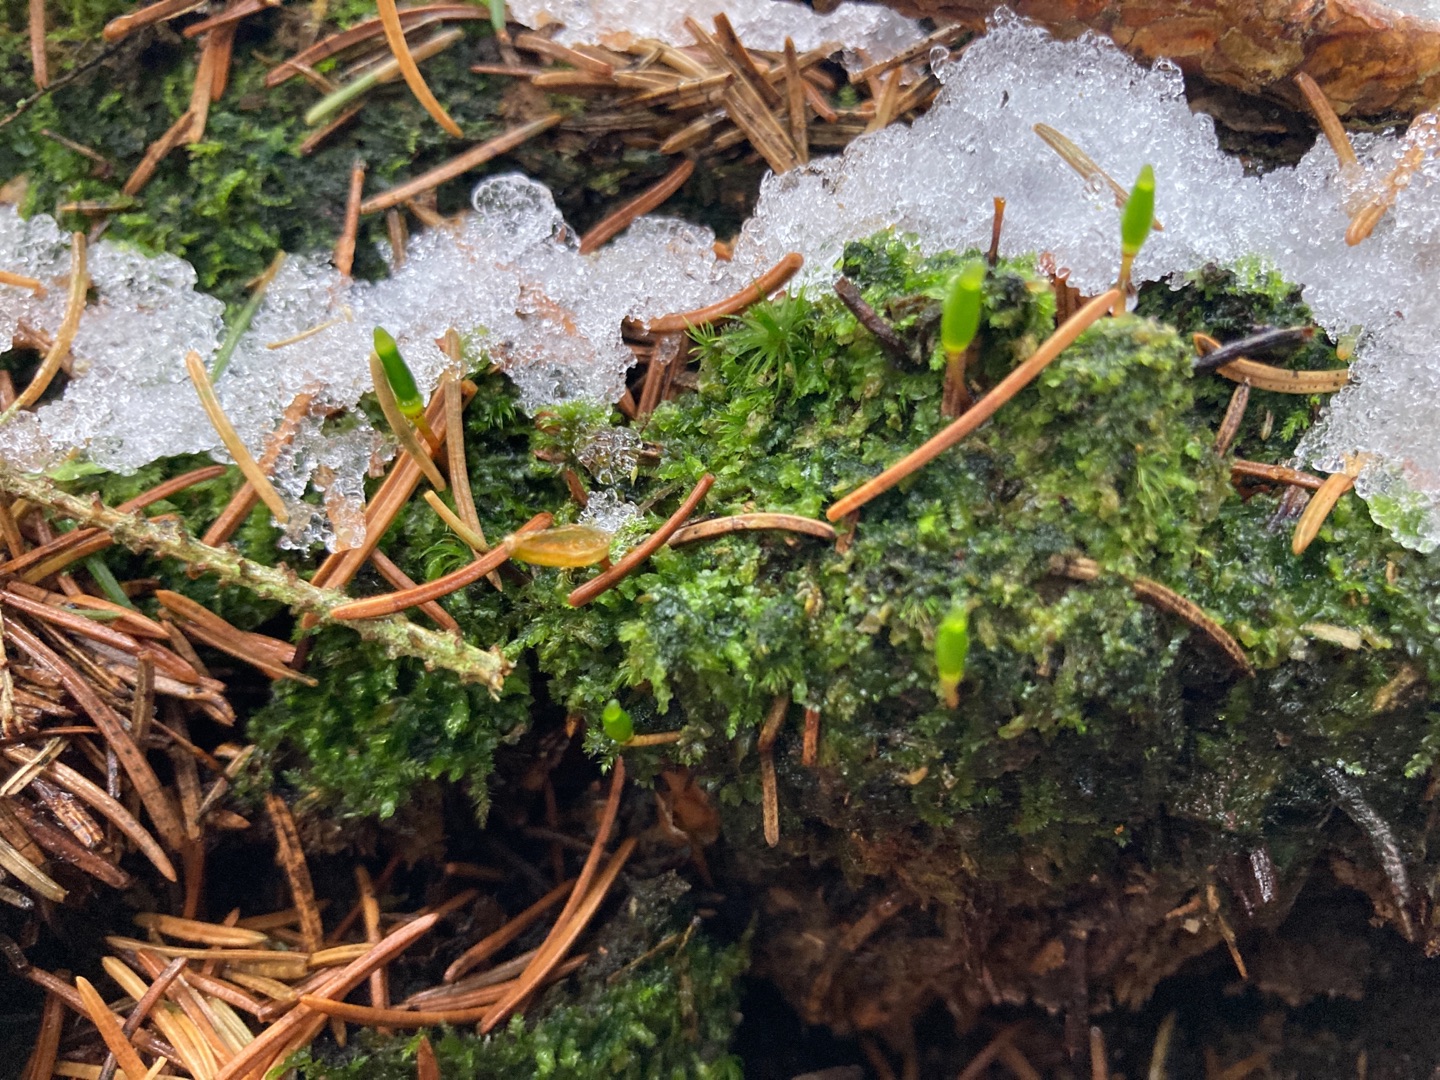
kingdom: Plantae
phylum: Bryophyta
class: Bryopsida
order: Buxbaumiales
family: Buxbaumiaceae
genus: Buxbaumia
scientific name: Buxbaumia viridis
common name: Grøn buxbaumia
